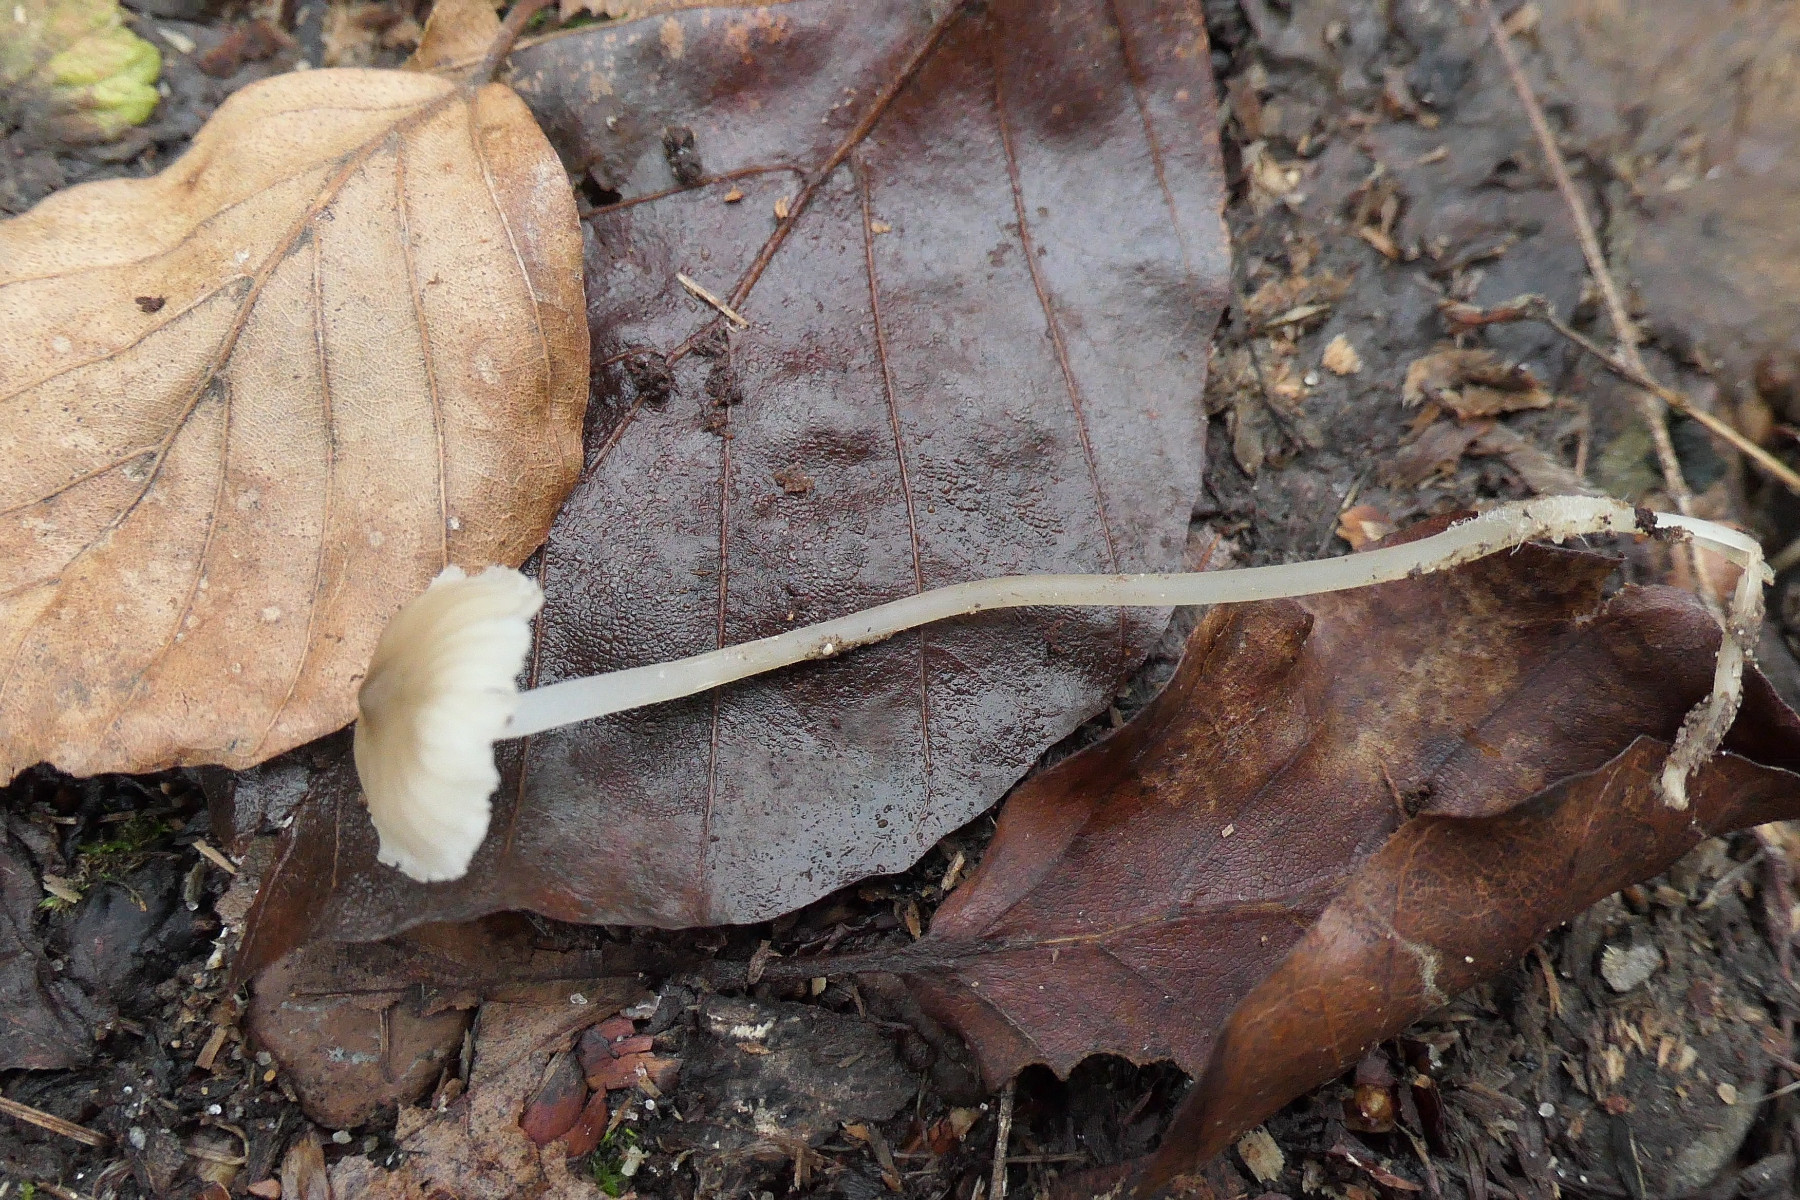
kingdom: Fungi
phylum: Basidiomycota
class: Agaricomycetes
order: Agaricales
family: Mycenaceae
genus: Mycena
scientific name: Mycena vitilis
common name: blankstokket huesvamp
